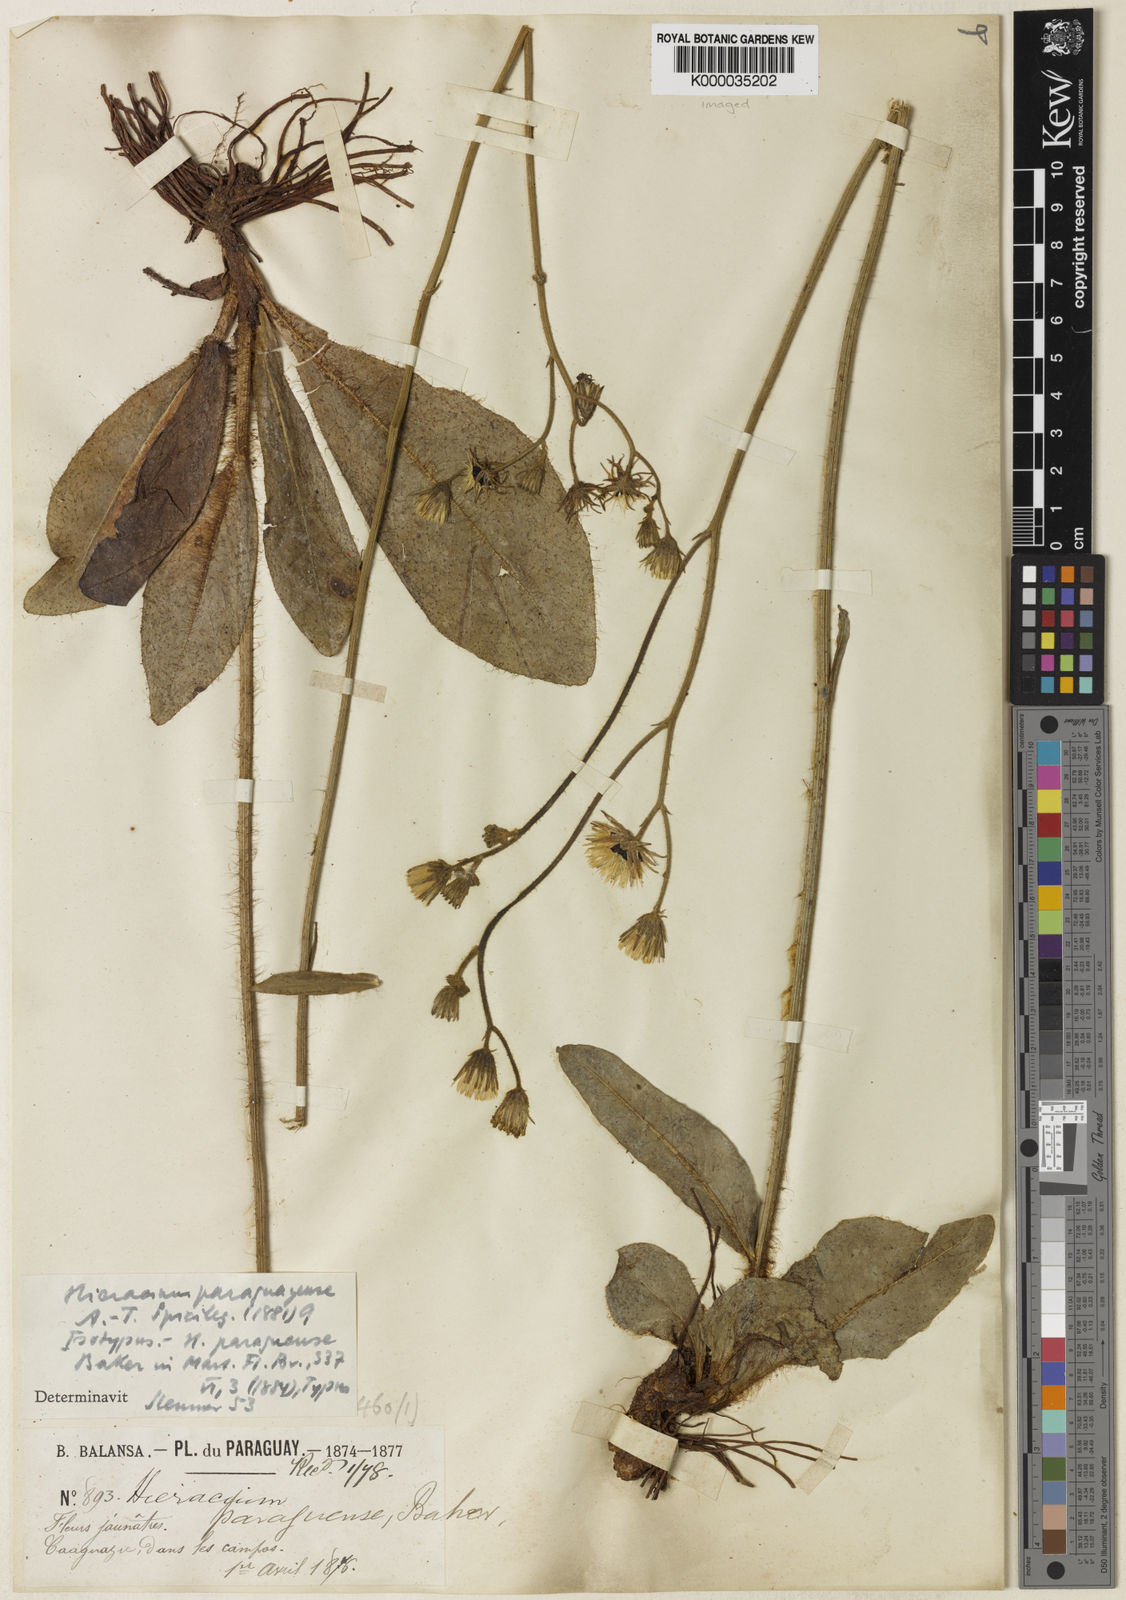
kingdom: Plantae
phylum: Tracheophyta
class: Magnoliopsida
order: Asterales
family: Asteraceae
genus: Hieracium
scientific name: Hieracium paraguayense
